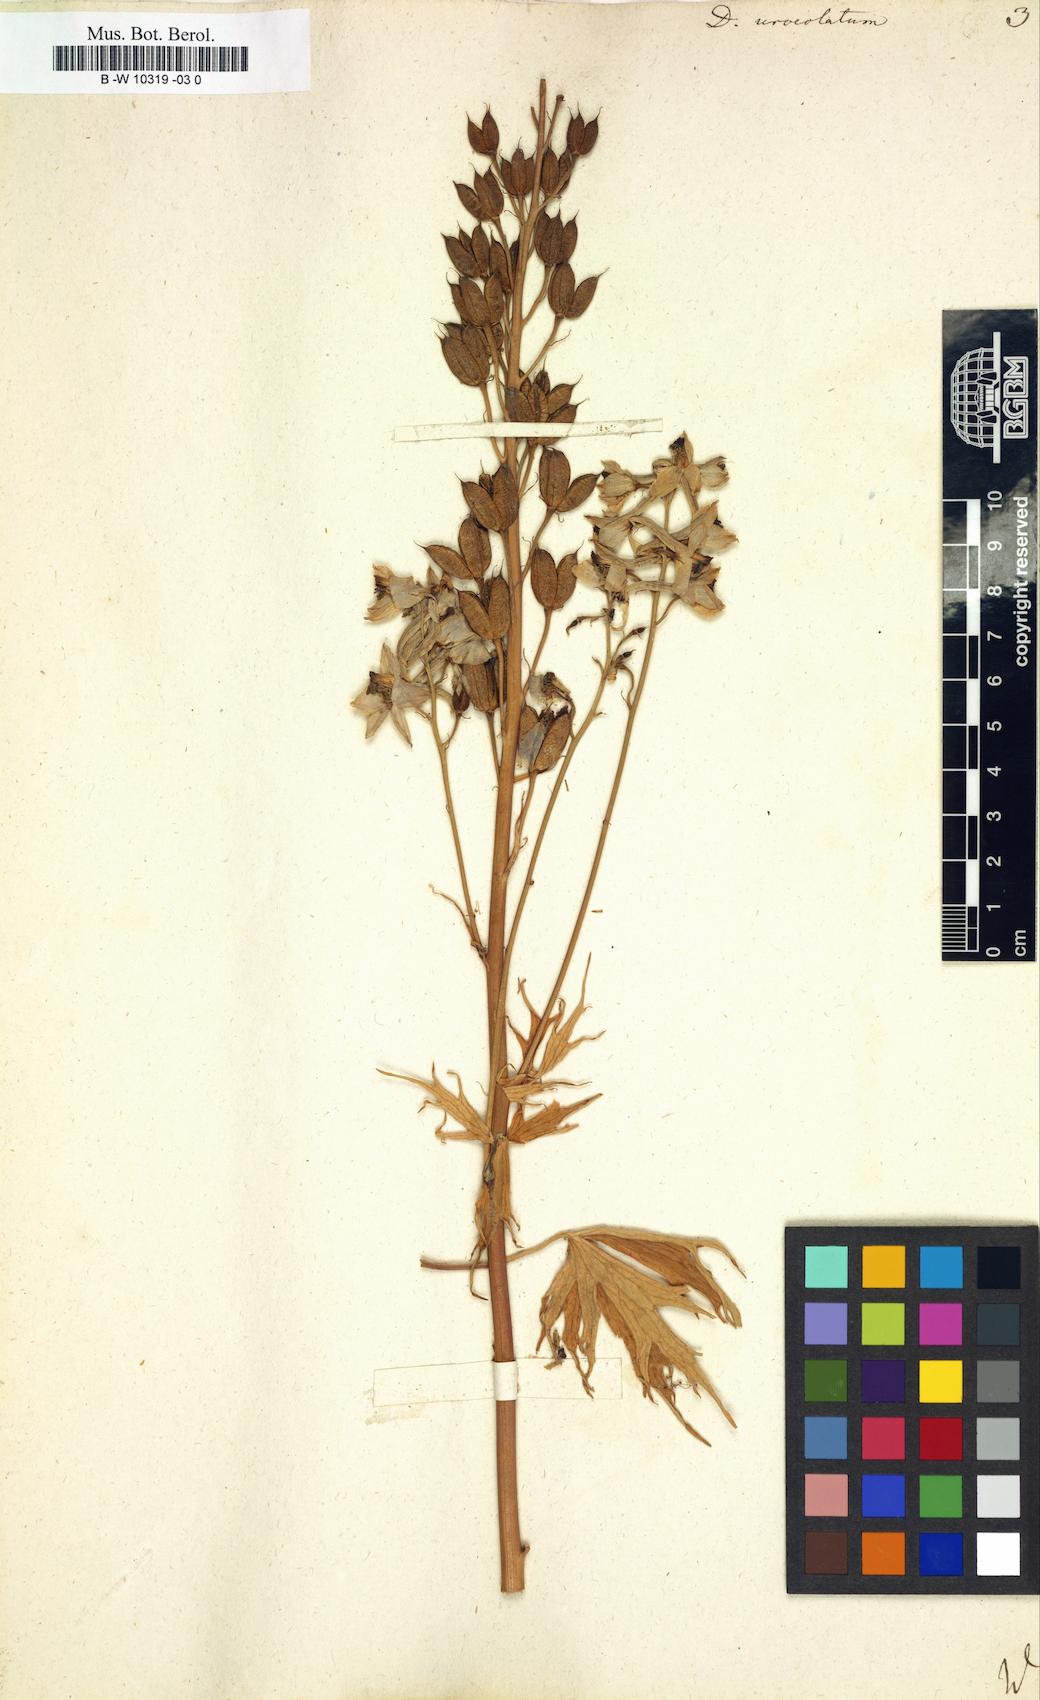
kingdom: Plantae
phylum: Tracheophyta
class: Magnoliopsida
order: Ranunculales
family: Ranunculaceae
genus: Delphinium
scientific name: Delphinium elatum
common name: Candle larkspur
